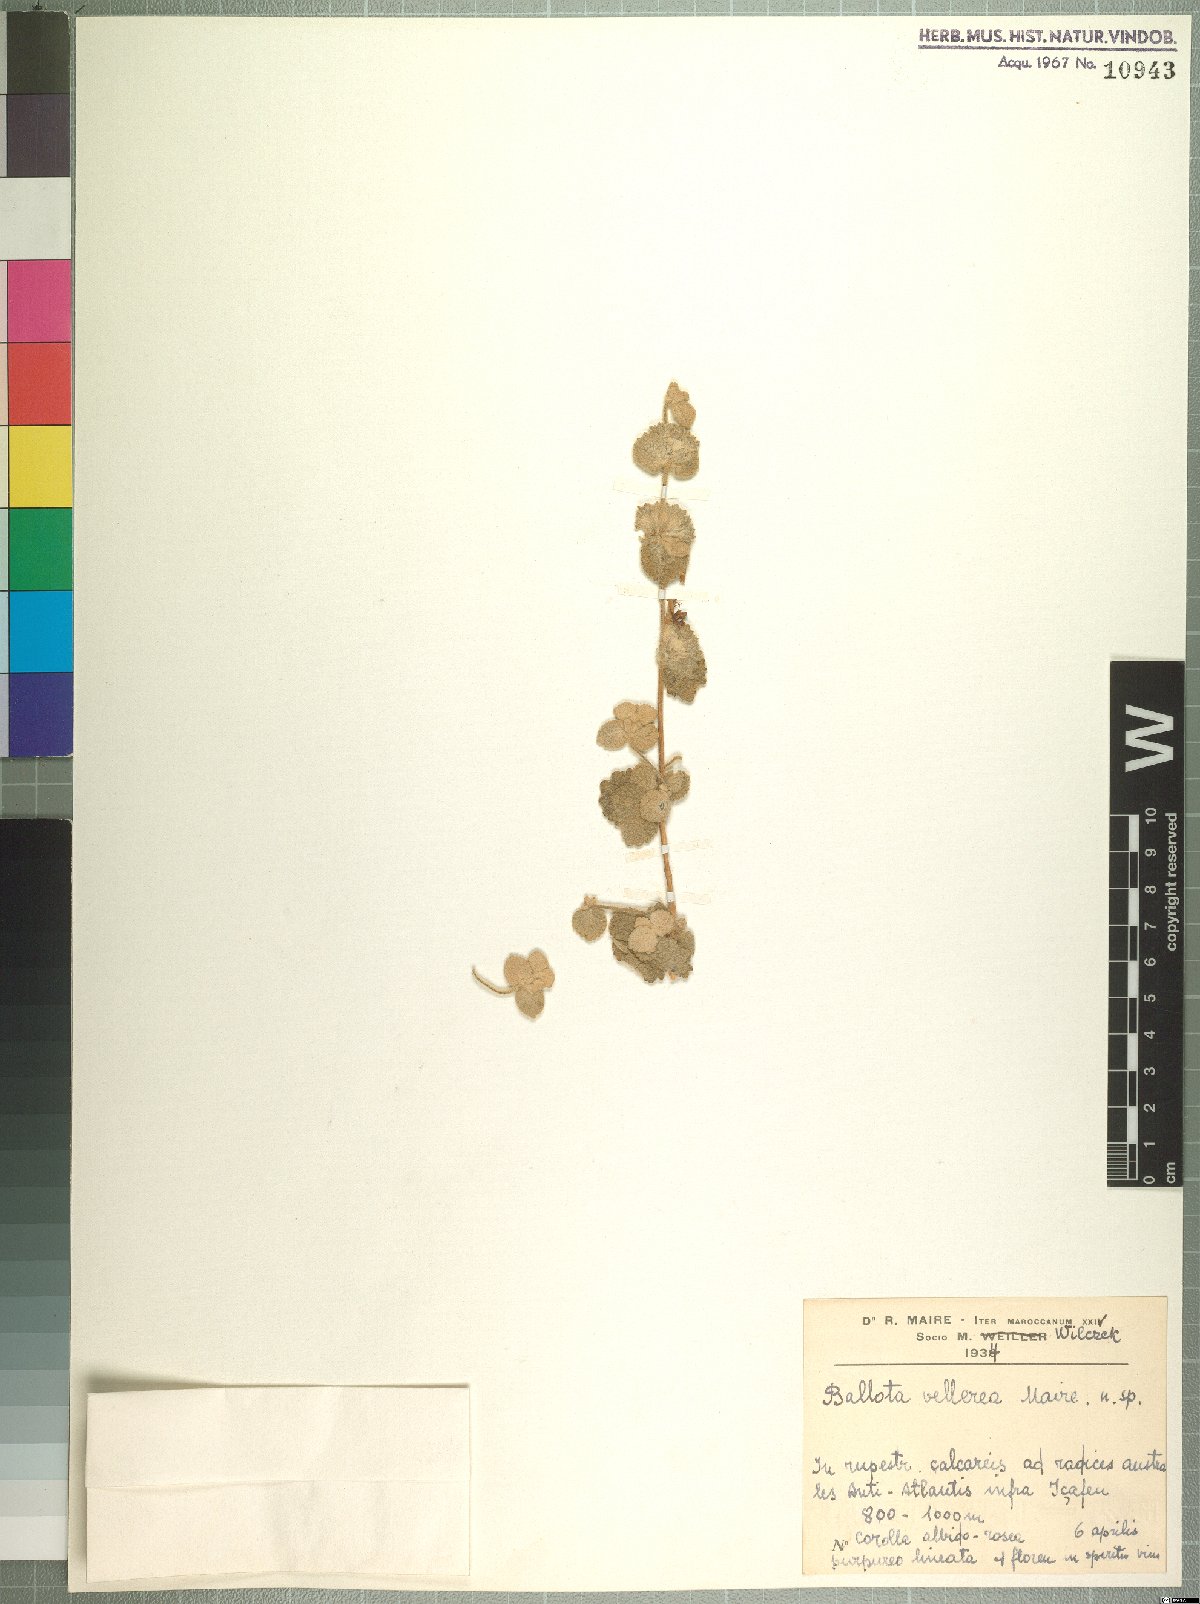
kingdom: Plantae
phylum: Tracheophyta
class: Magnoliopsida
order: Lamiales
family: Lamiaceae
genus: Ballota
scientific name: Ballota vellerea
